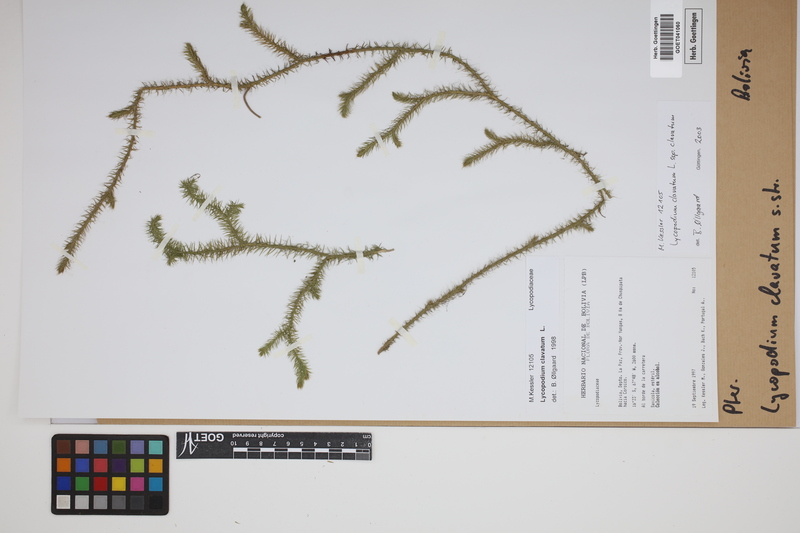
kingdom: Plantae
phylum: Tracheophyta
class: Lycopodiopsida
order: Lycopodiales
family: Lycopodiaceae
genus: Lycopodium
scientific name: Lycopodium clavatum
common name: Stag's-horn clubmoss
